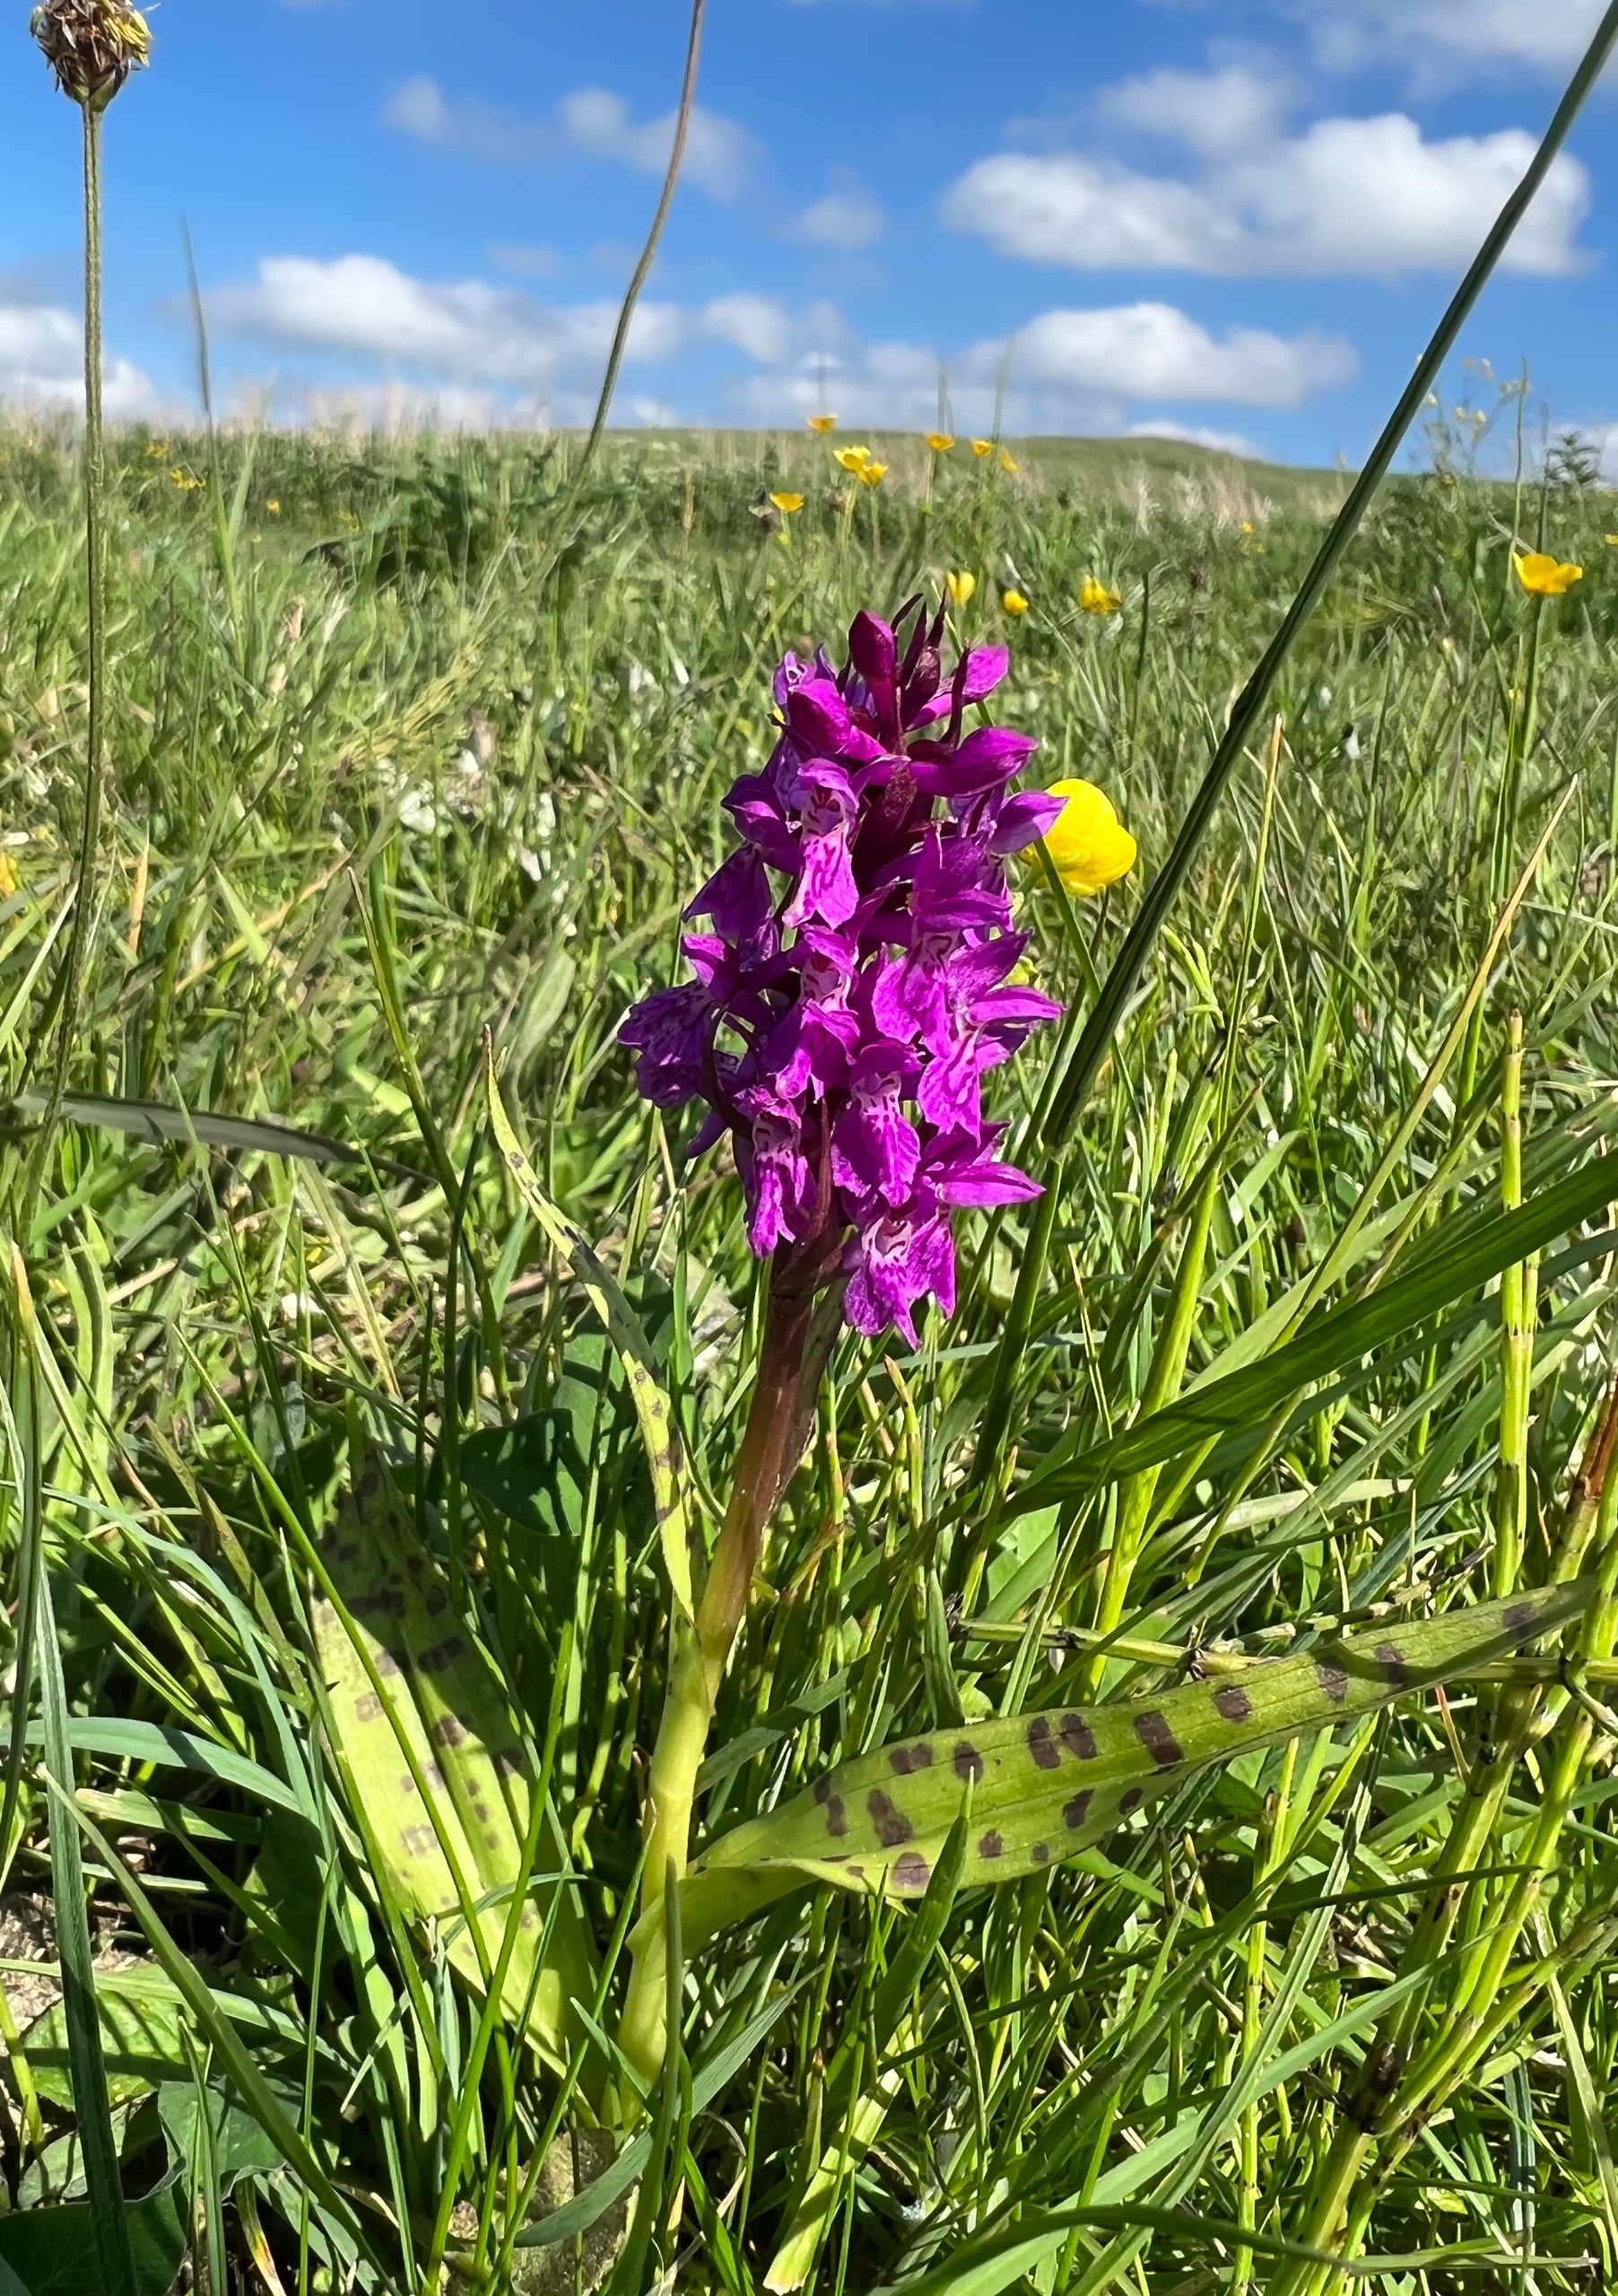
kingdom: Plantae
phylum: Tracheophyta
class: Liliopsida
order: Asparagales
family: Orchidaceae
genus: Dactylorhiza
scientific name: Dactylorhiza majalis
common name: Maj-gøgeurt
